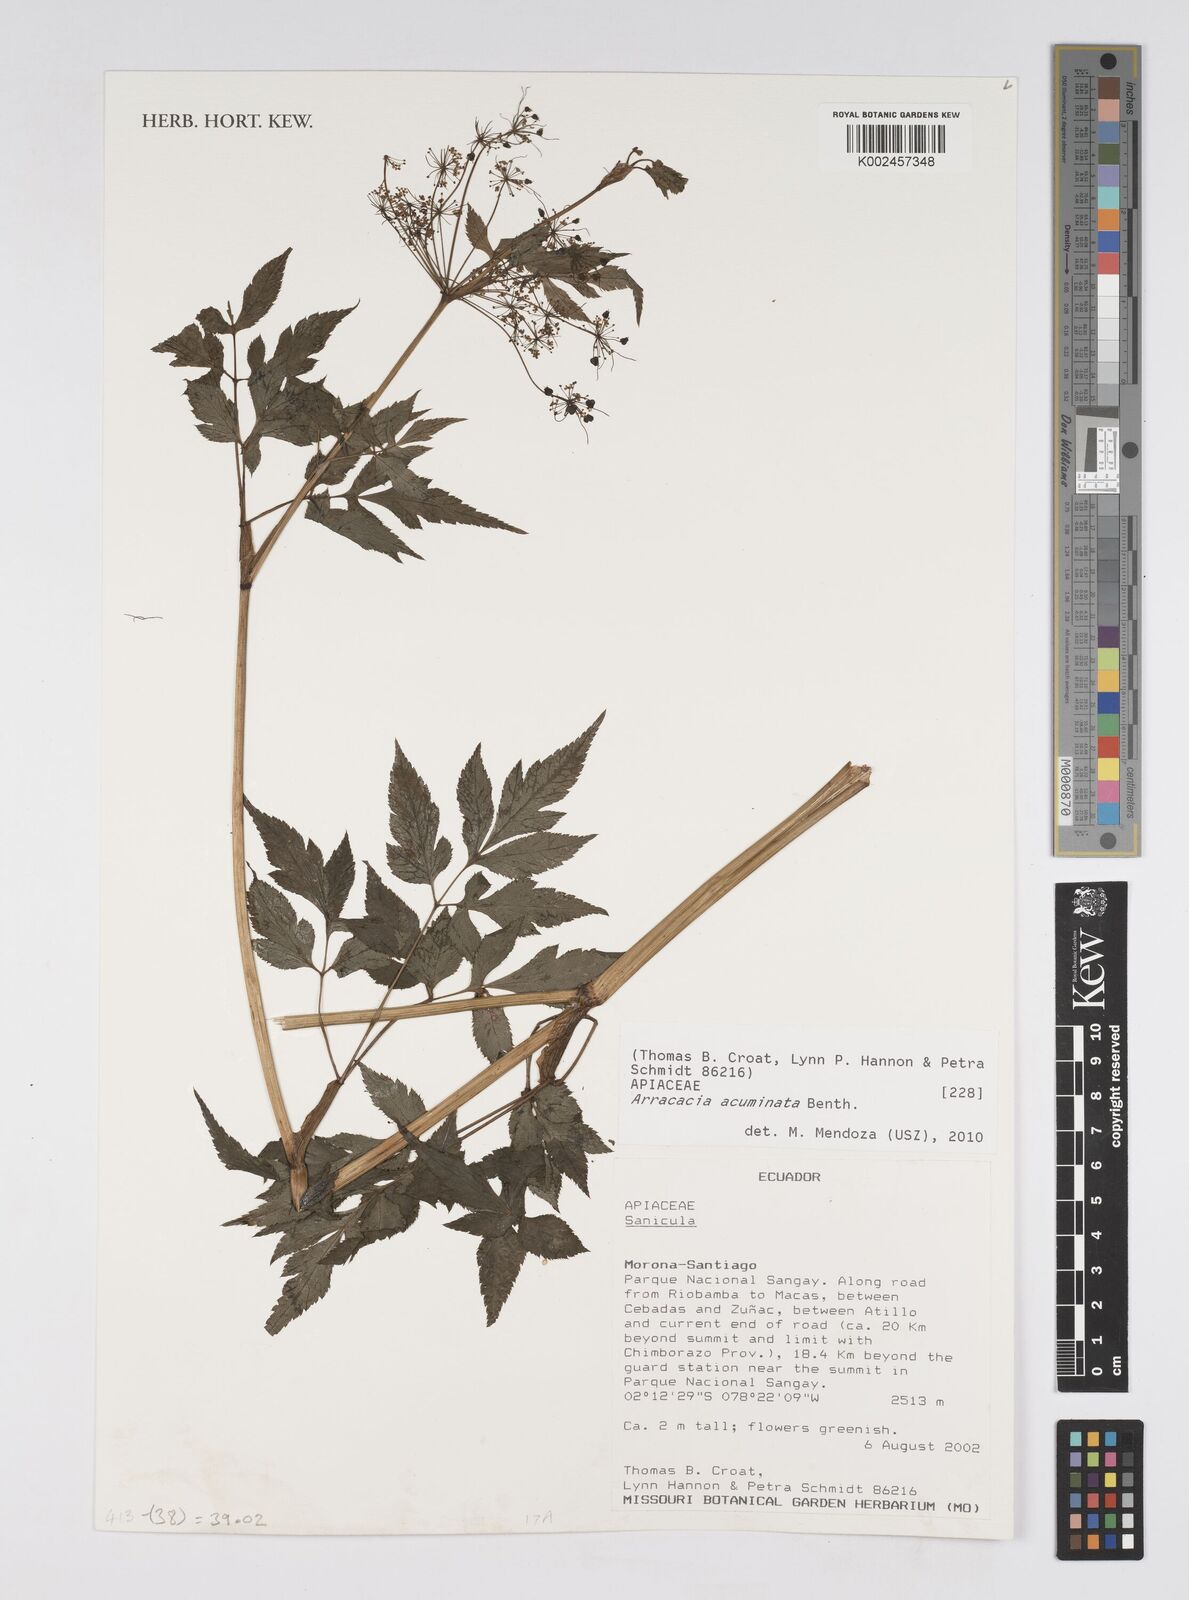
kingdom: Plantae
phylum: Tracheophyta
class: Magnoliopsida
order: Apiales
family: Apiaceae
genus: Neonelsonia
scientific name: Neonelsonia acuminata
